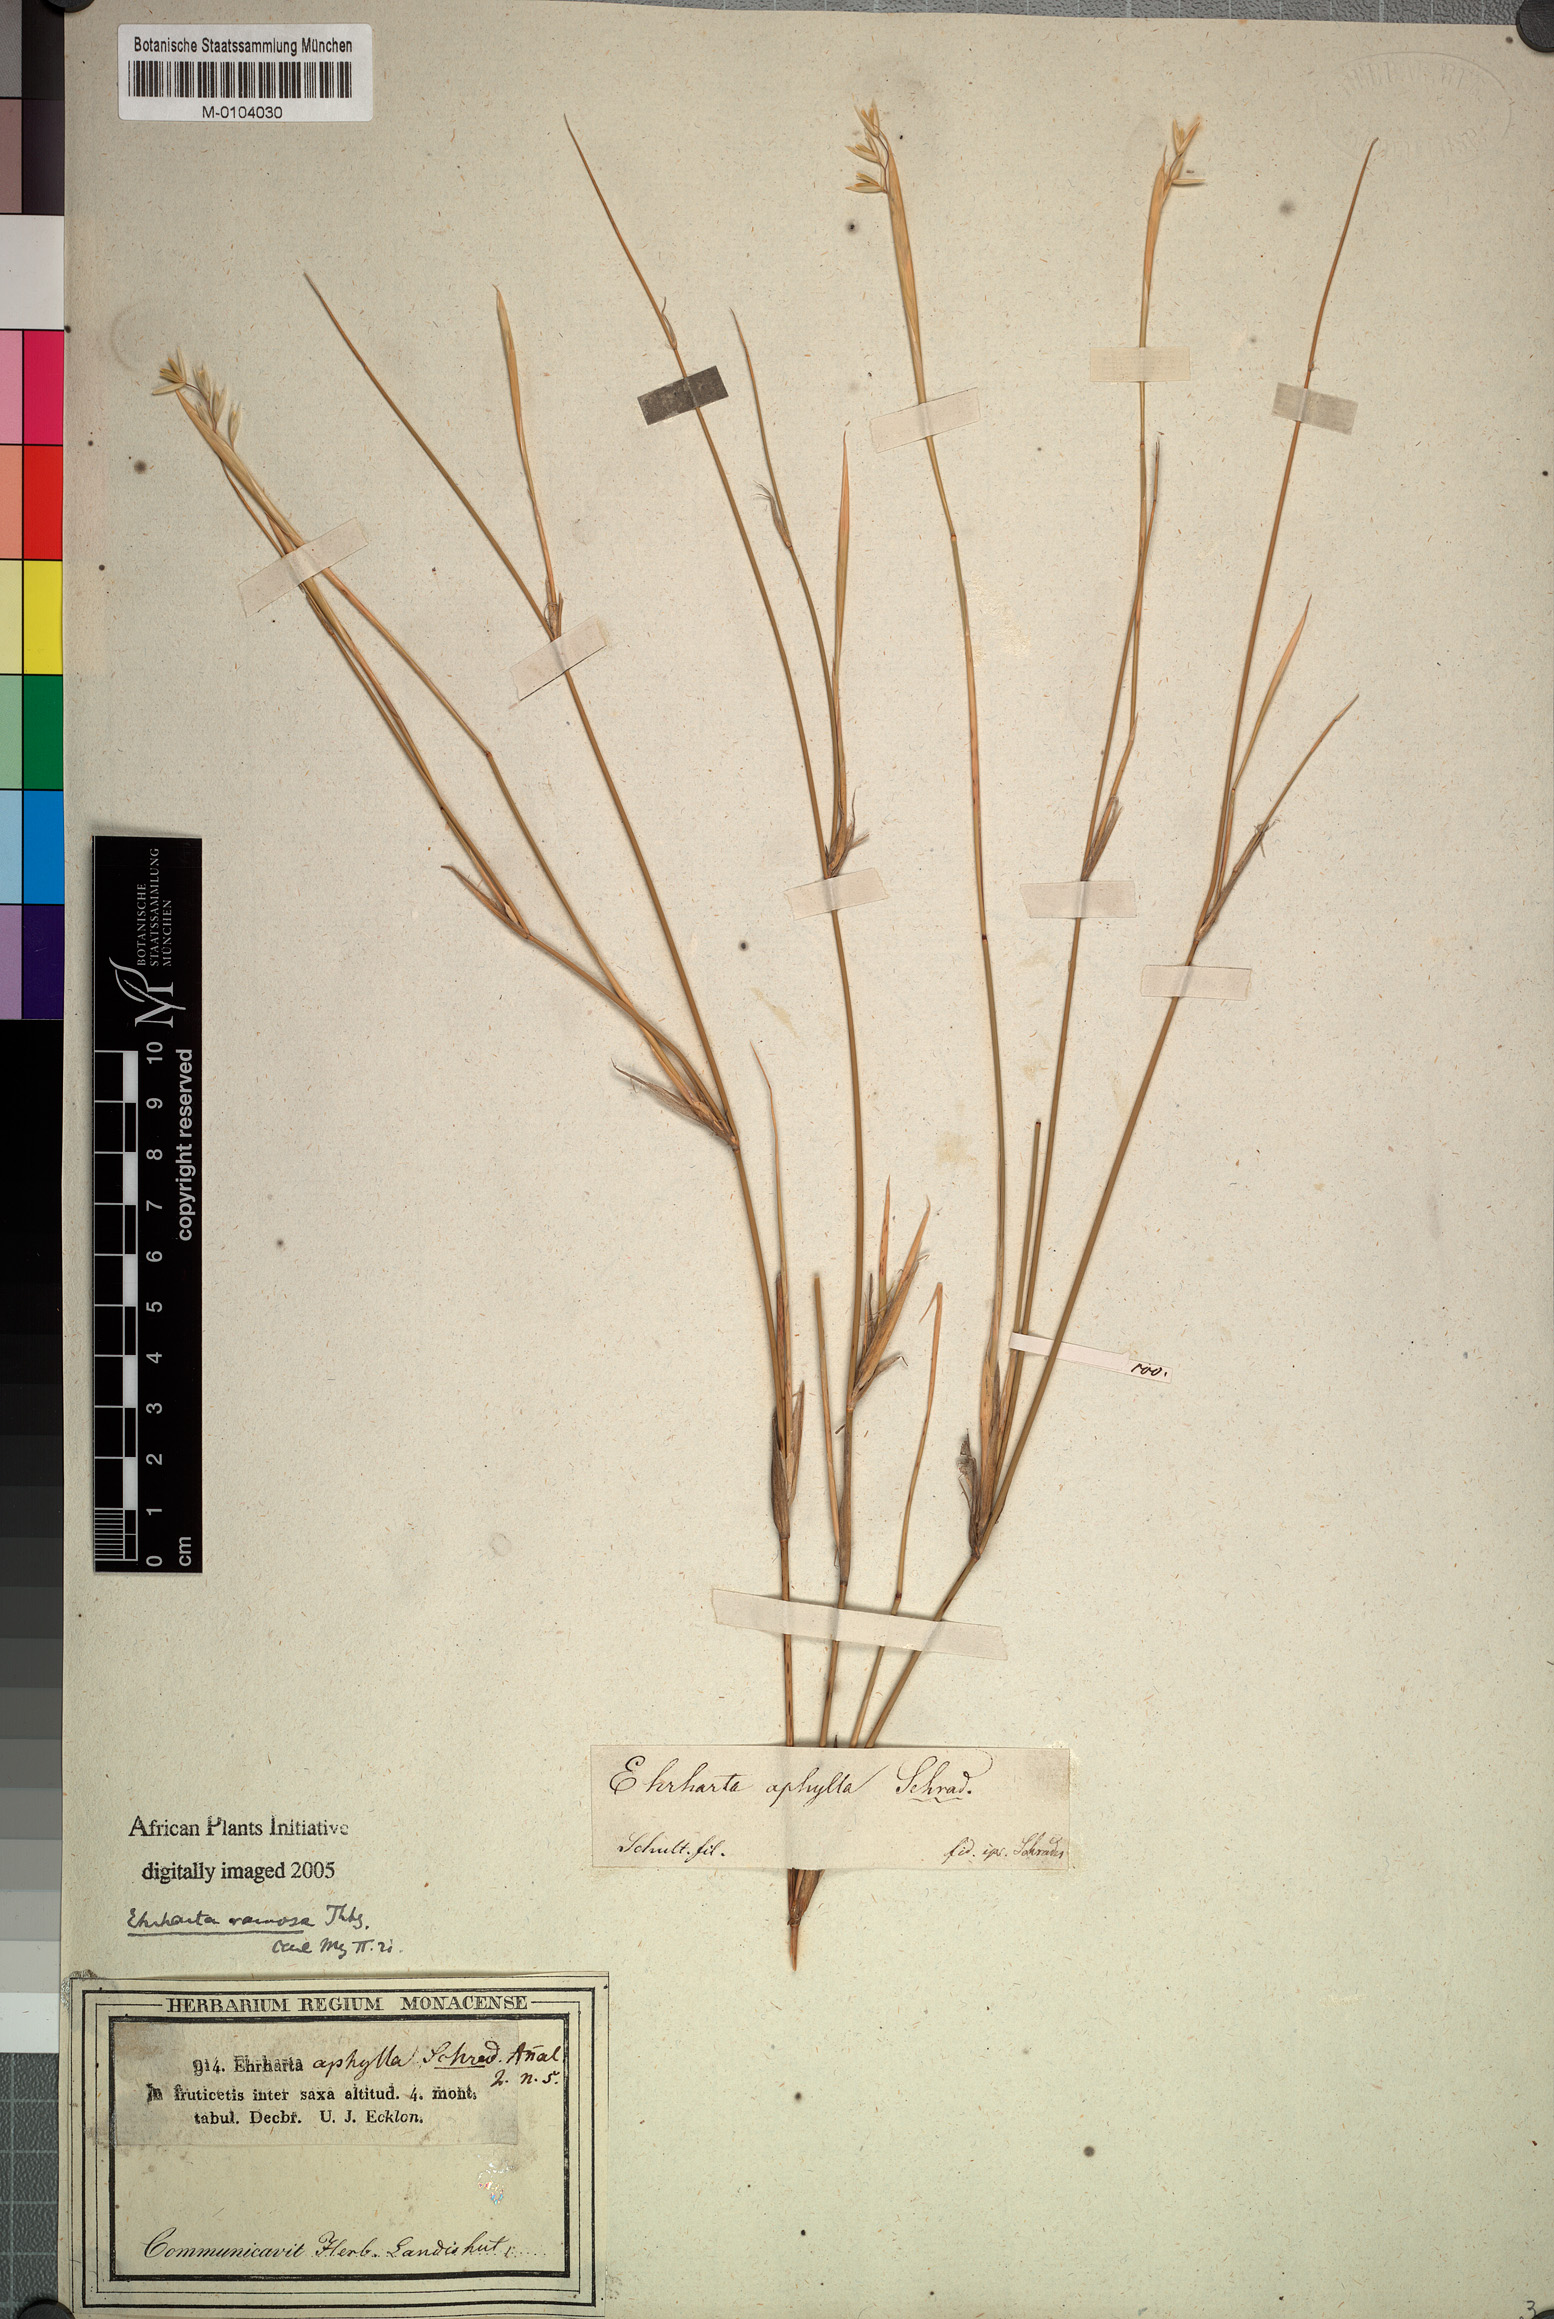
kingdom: Plantae
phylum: Tracheophyta
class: Liliopsida
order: Poales
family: Poaceae
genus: Ehrharta
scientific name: Ehrharta ramosa
